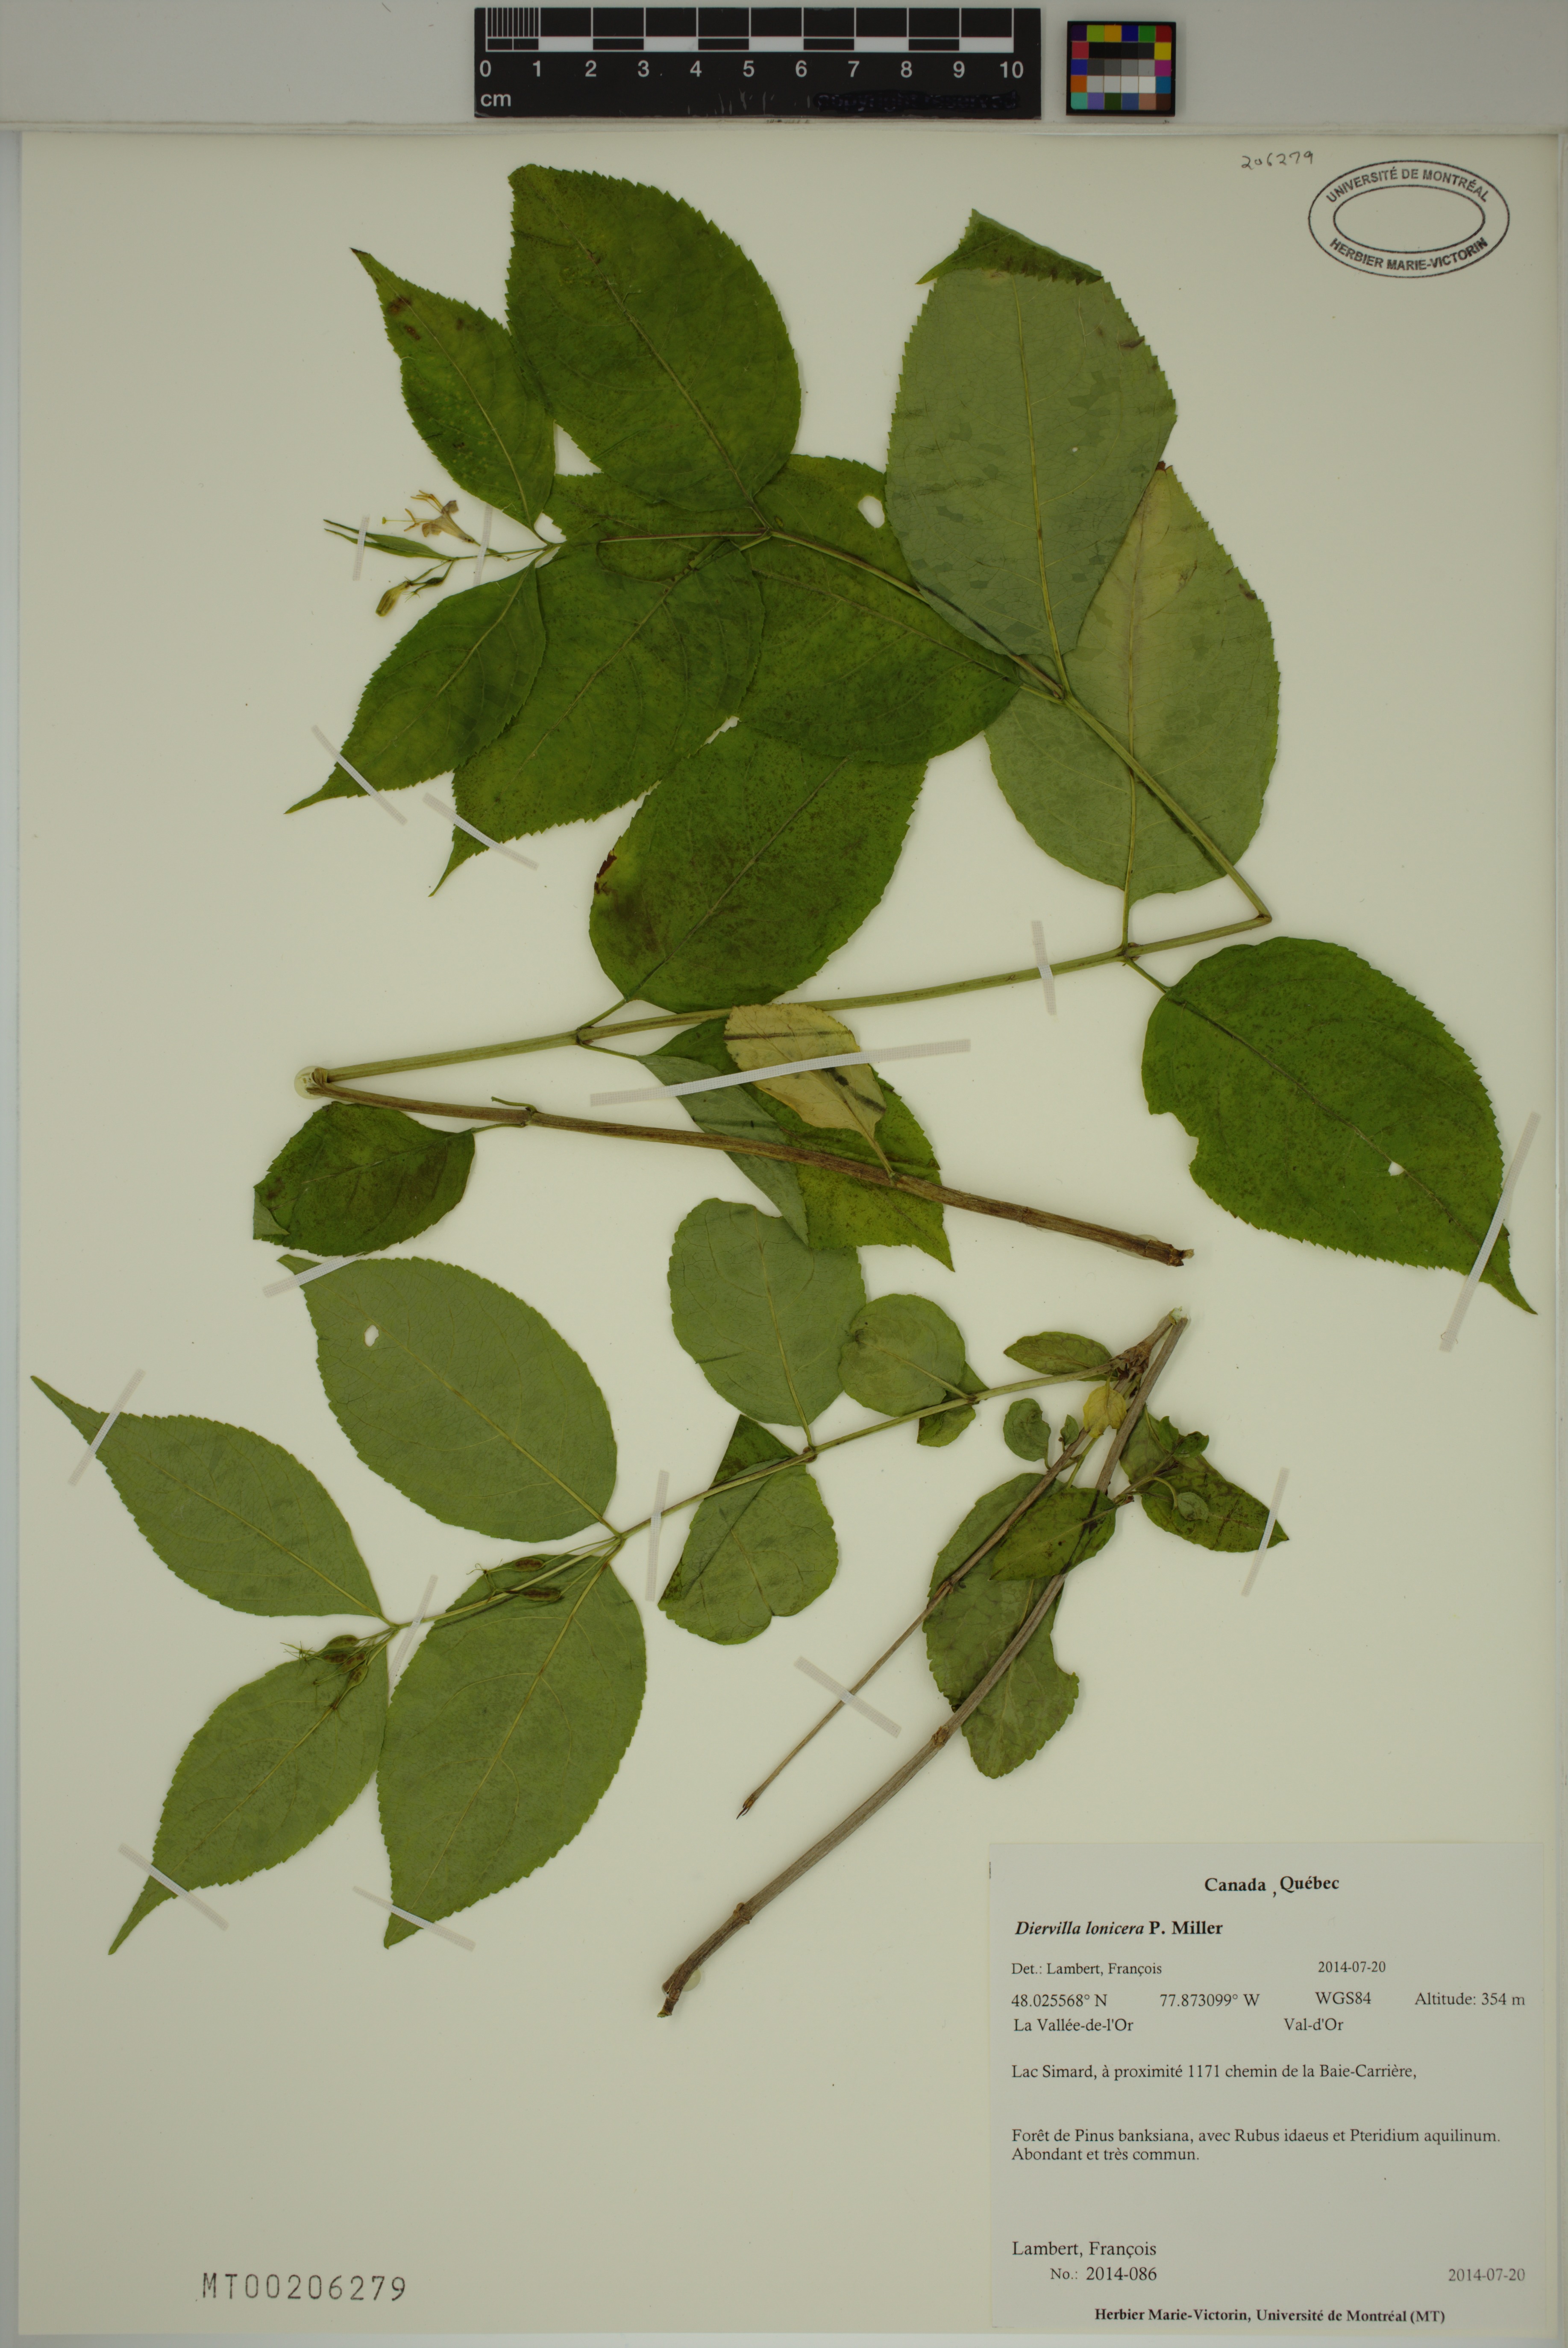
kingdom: Plantae
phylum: Tracheophyta
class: Magnoliopsida
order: Dipsacales
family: Caprifoliaceae
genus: Diervilla
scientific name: Diervilla lonicera
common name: Bush-honeysuckle
